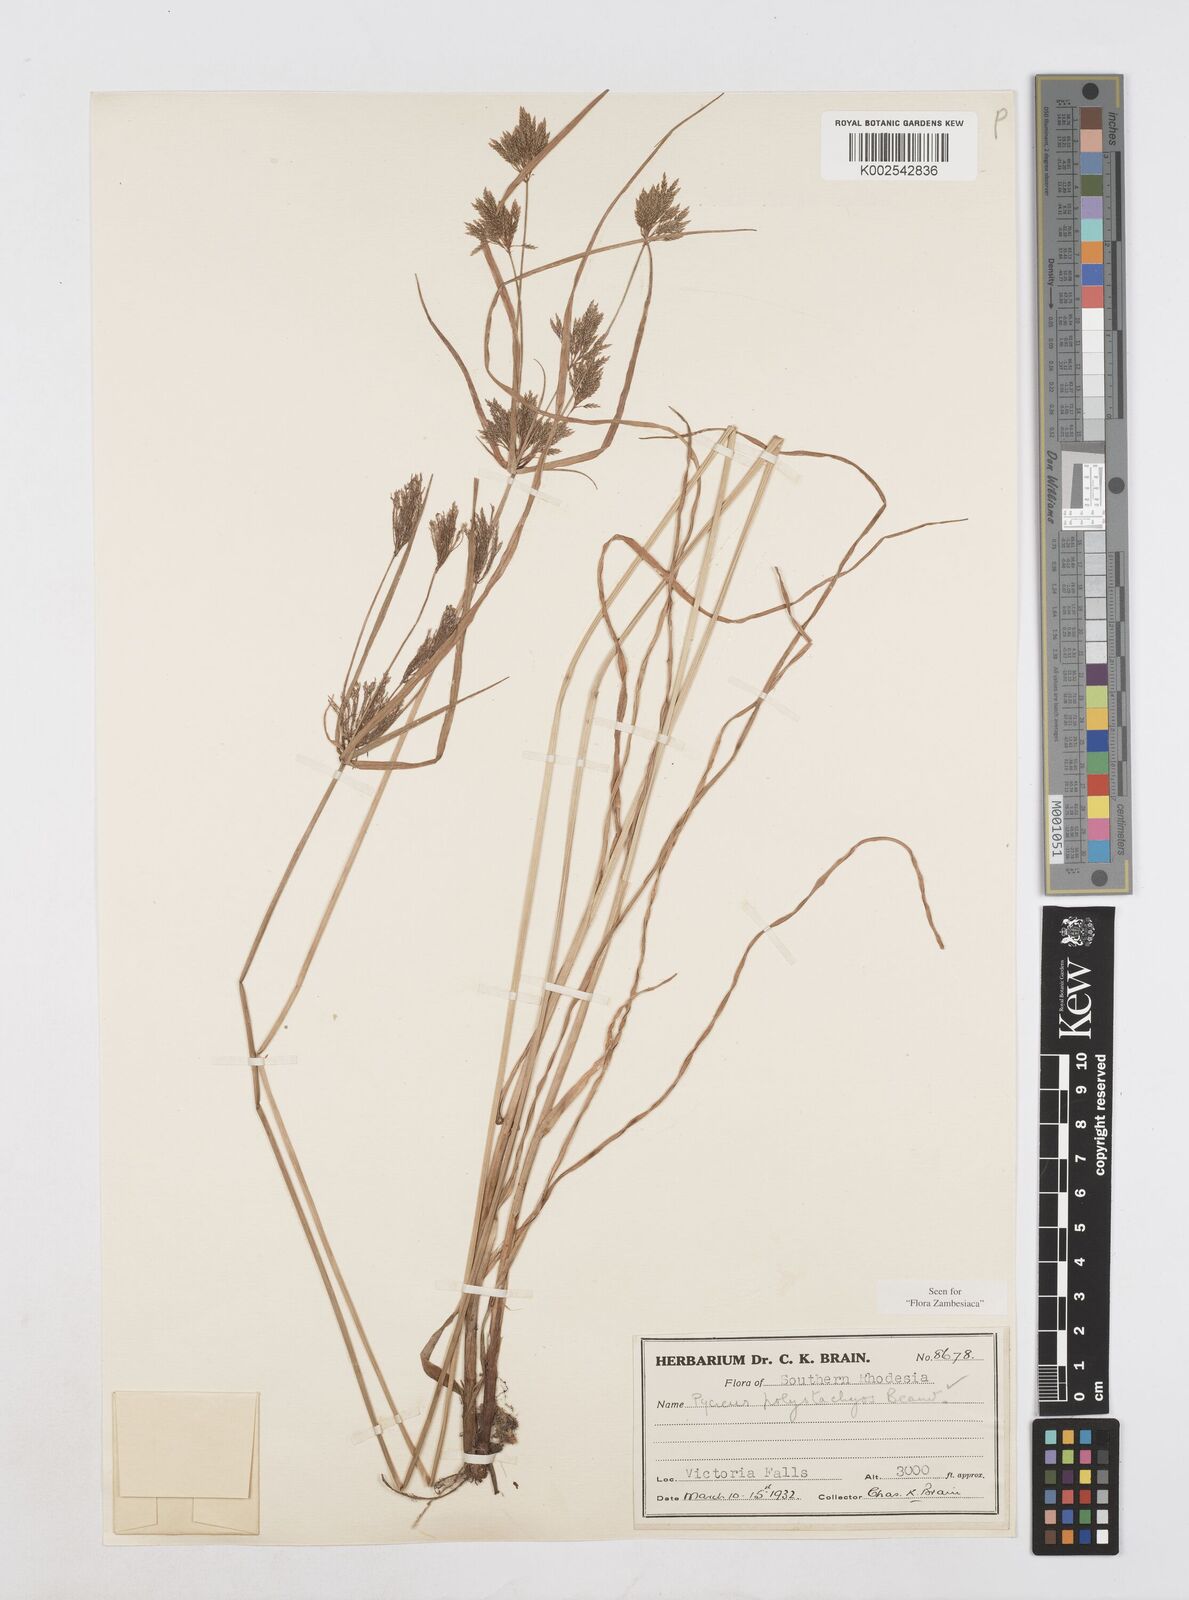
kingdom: Plantae
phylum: Tracheophyta
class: Liliopsida
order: Poales
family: Cyperaceae
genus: Cyperus
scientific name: Cyperus polystachyos
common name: Bunchy flat sedge
